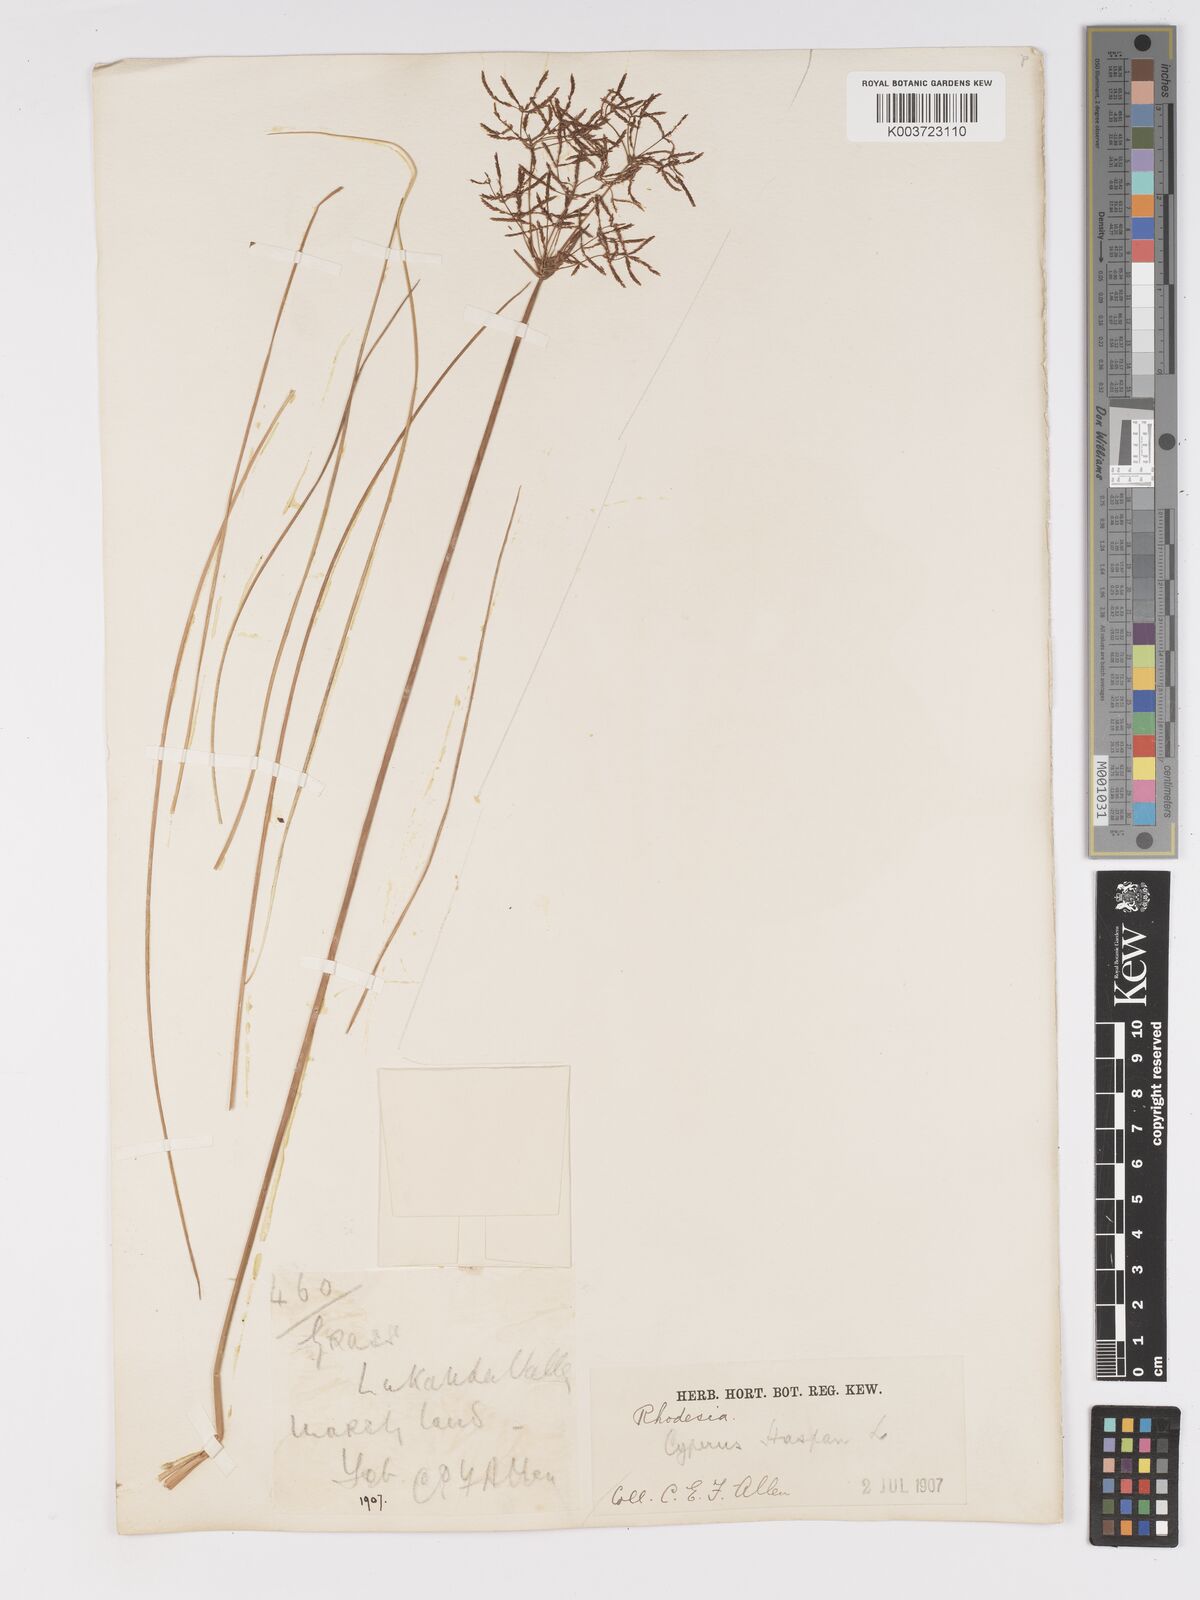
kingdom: Plantae
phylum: Tracheophyta
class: Liliopsida
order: Poales
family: Cyperaceae
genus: Cyperus
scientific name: Cyperus haspan
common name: Haspan flatsedge
